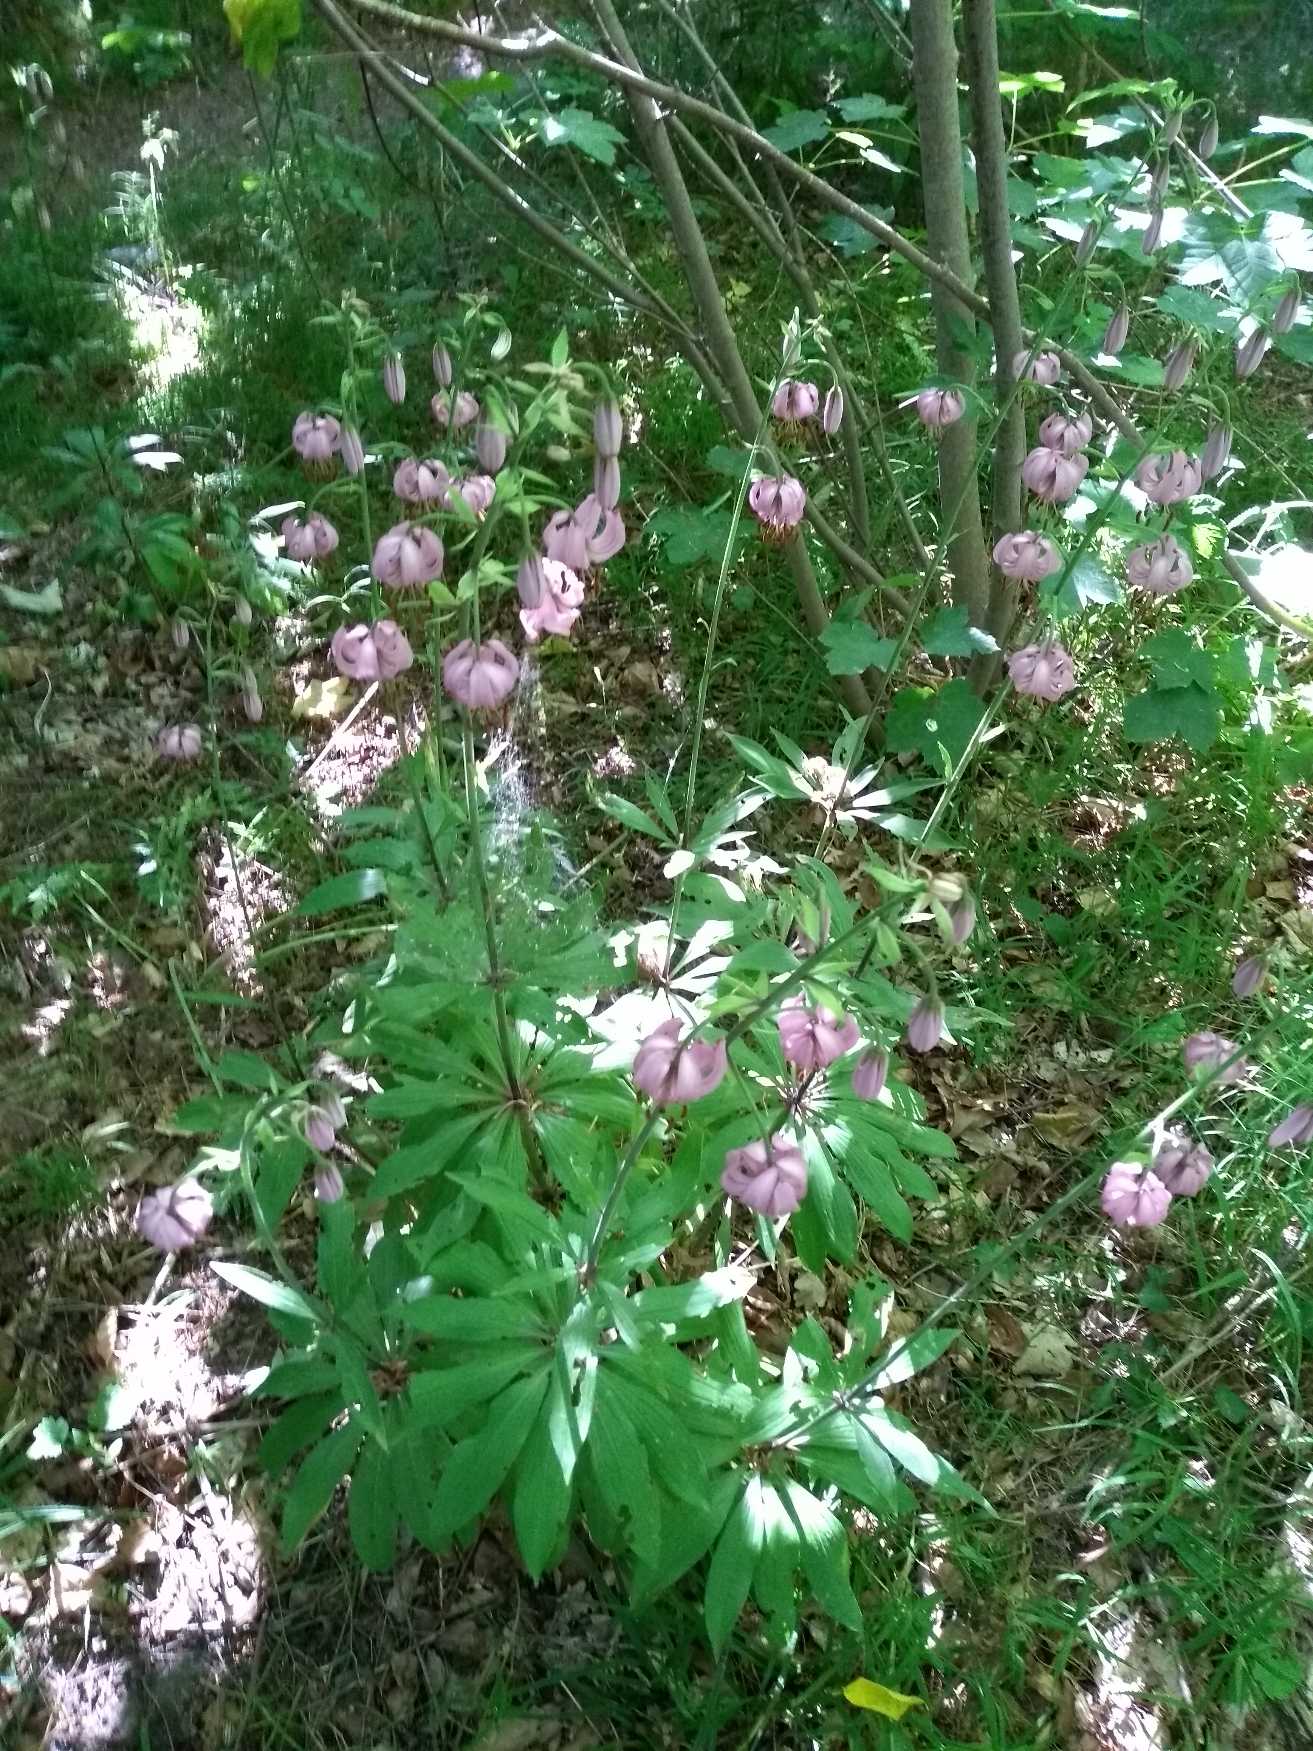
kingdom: Plantae
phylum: Tracheophyta
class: Liliopsida
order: Liliales
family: Liliaceae
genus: Lilium
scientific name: Lilium martagon
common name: Krans-lilje
